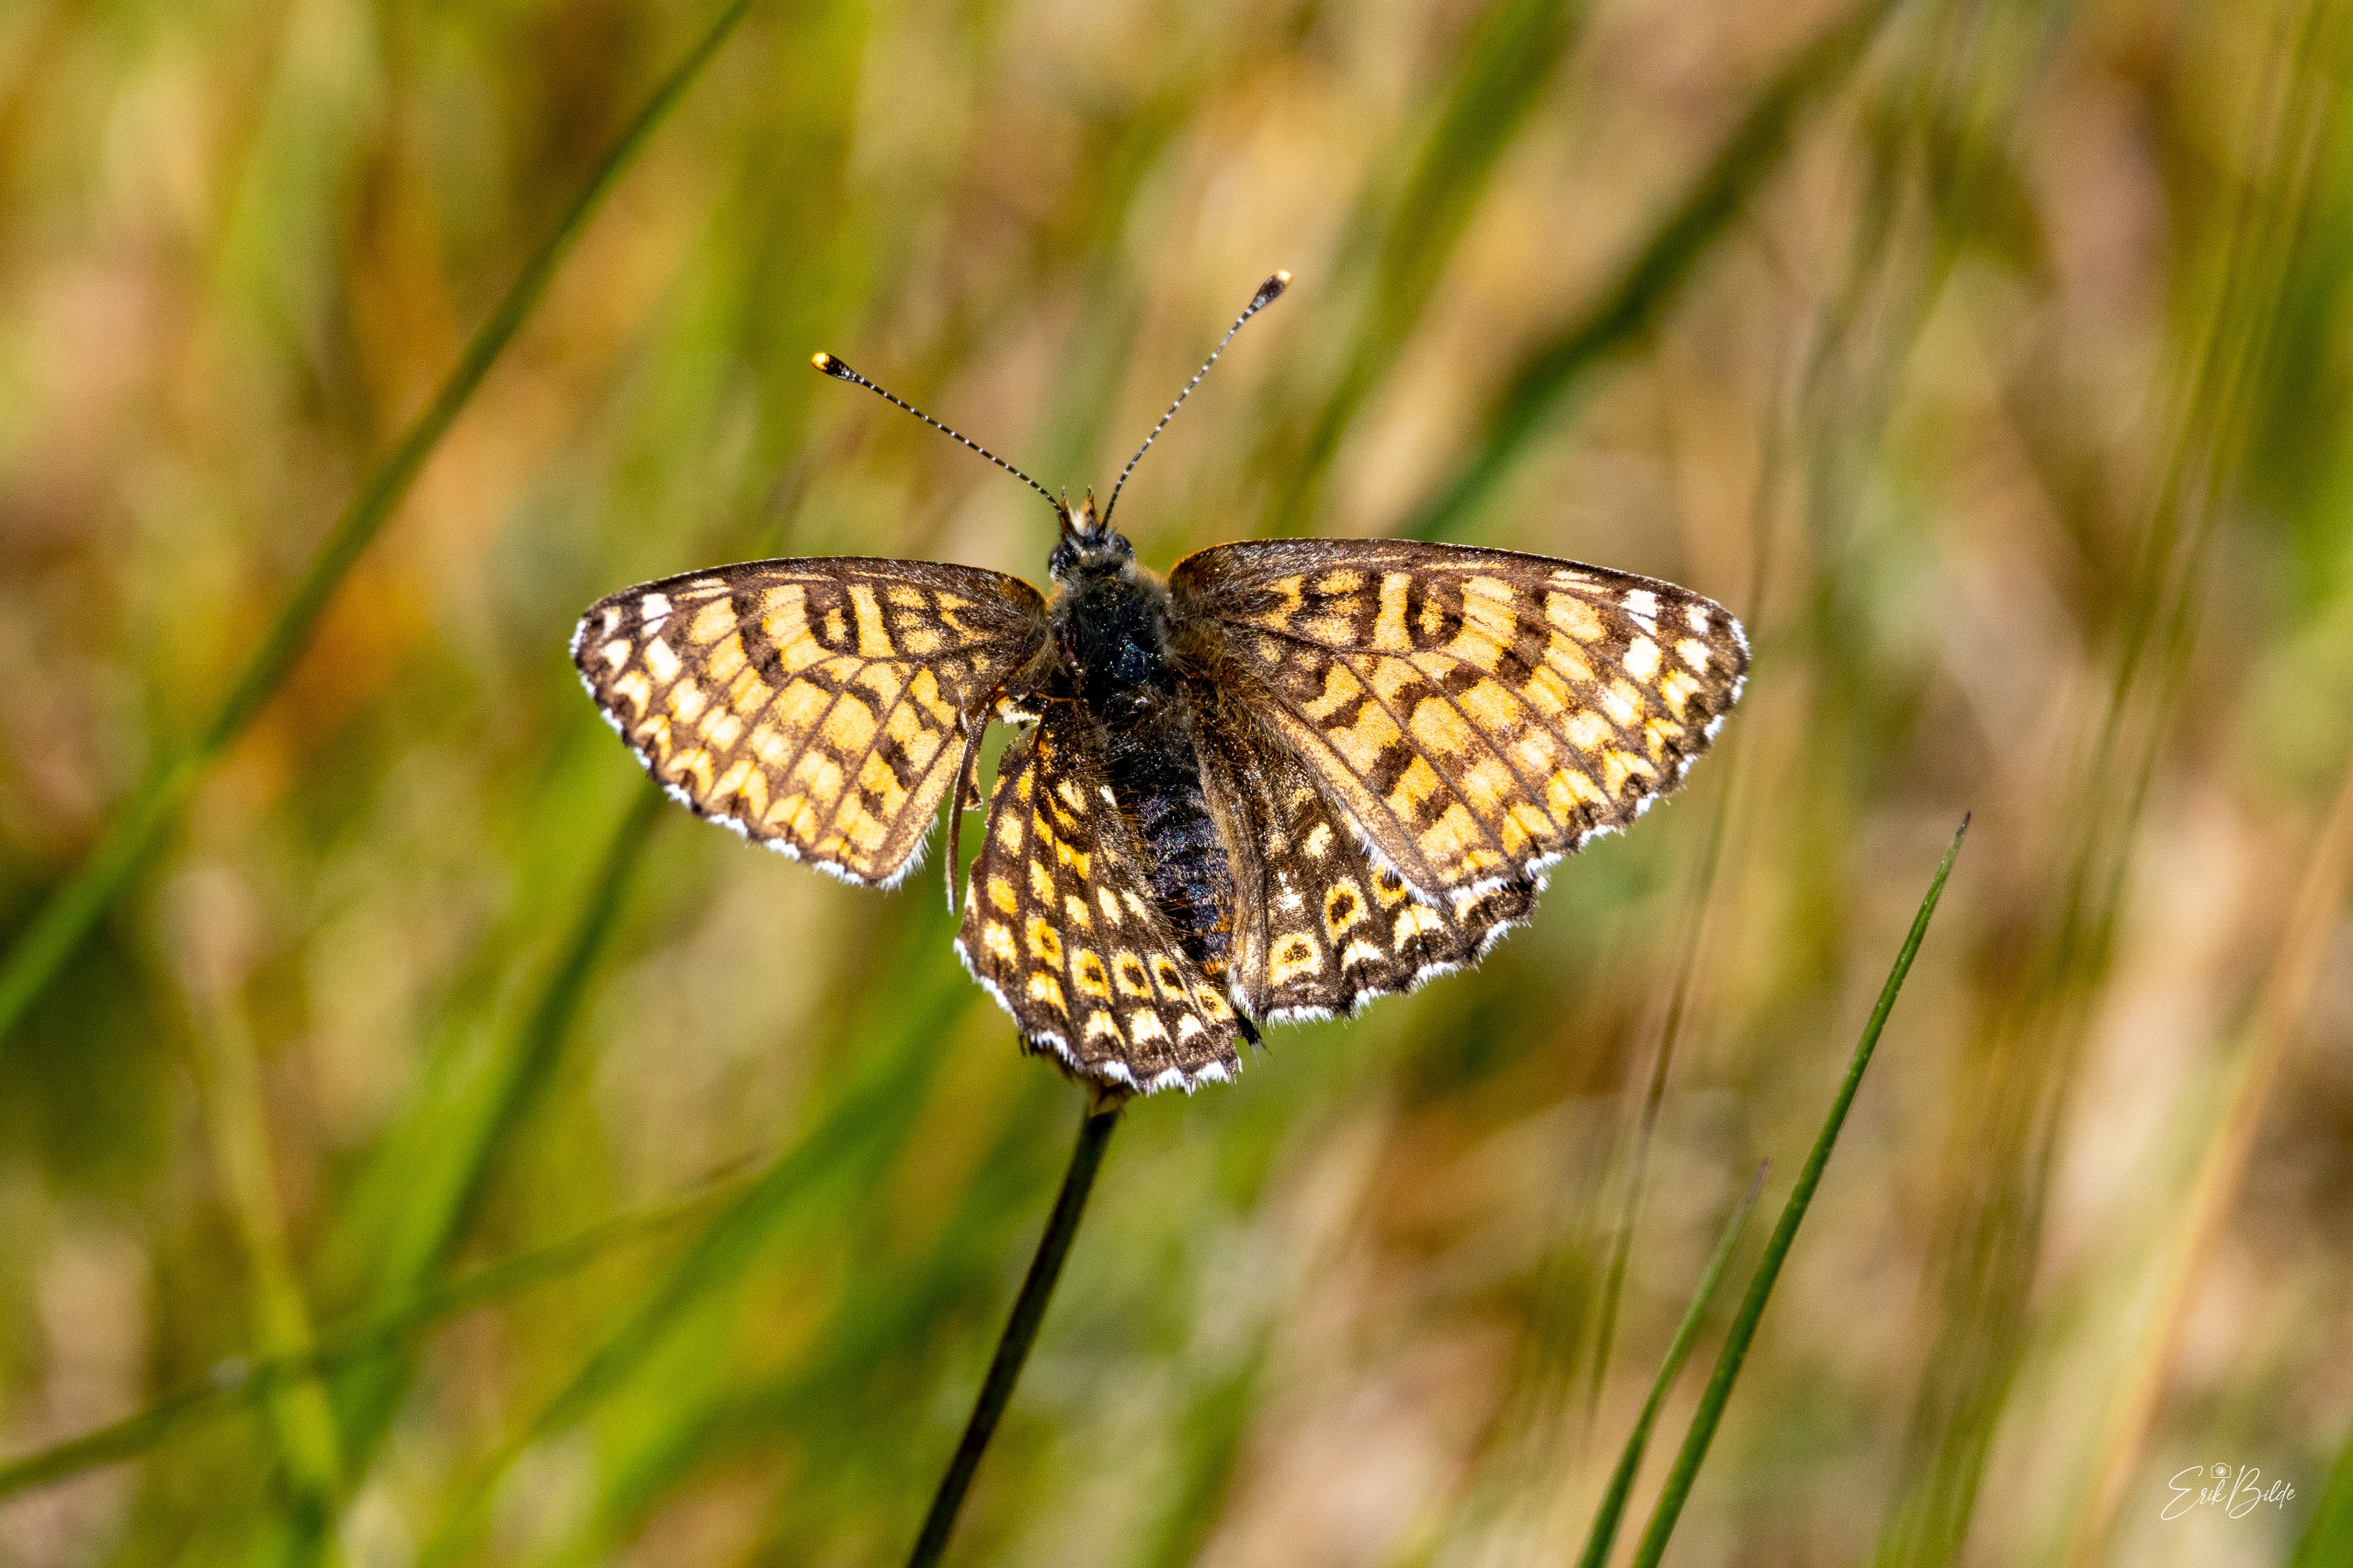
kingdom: Animalia
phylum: Arthropoda
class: Insecta
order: Lepidoptera
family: Nymphalidae
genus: Melitaea
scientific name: Melitaea cinxia
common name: Okkergul pletvinge
